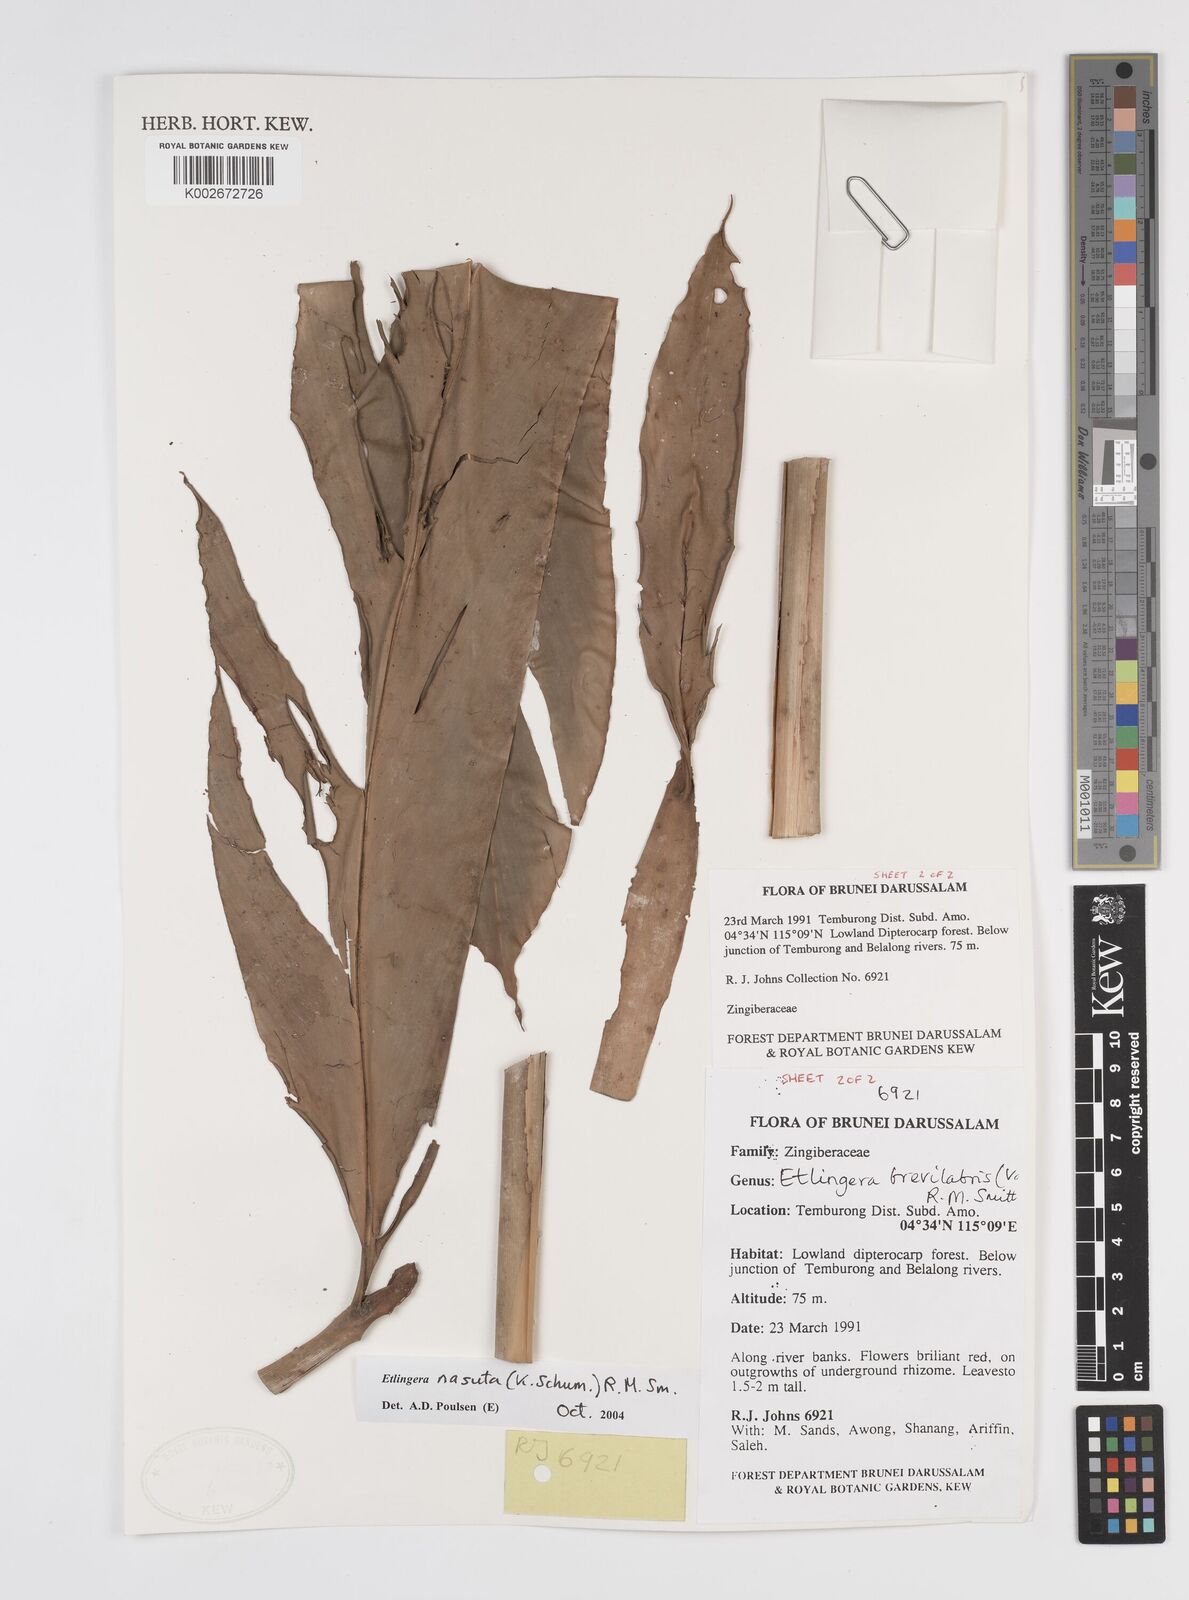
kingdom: Plantae
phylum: Tracheophyta
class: Liliopsida
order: Zingiberales
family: Zingiberaceae
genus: Etlingera
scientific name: Etlingera nasuta
